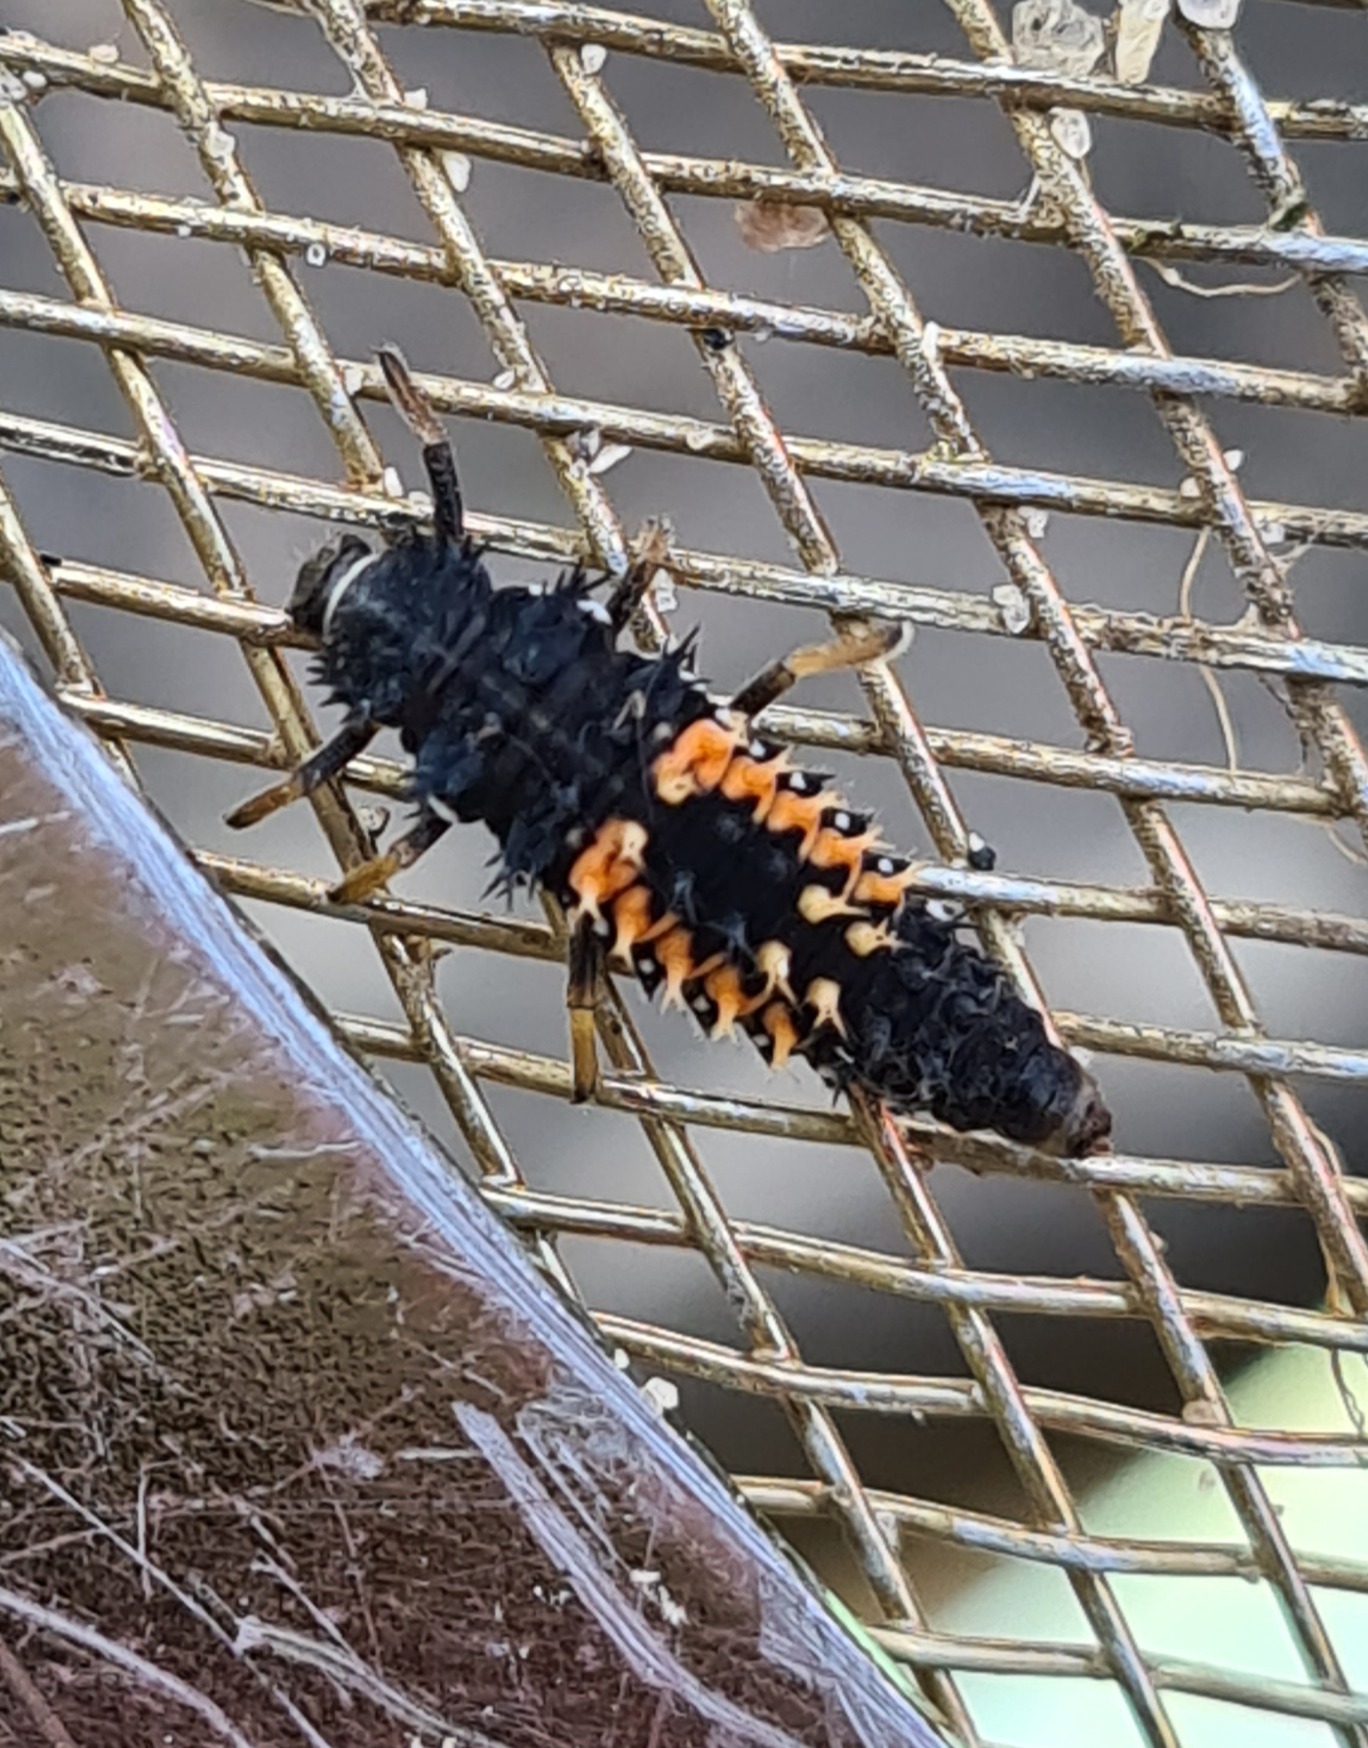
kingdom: Animalia
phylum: Arthropoda
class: Insecta
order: Coleoptera
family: Coccinellidae
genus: Harmonia
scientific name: Harmonia axyridis
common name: Harlekinmariehøne
